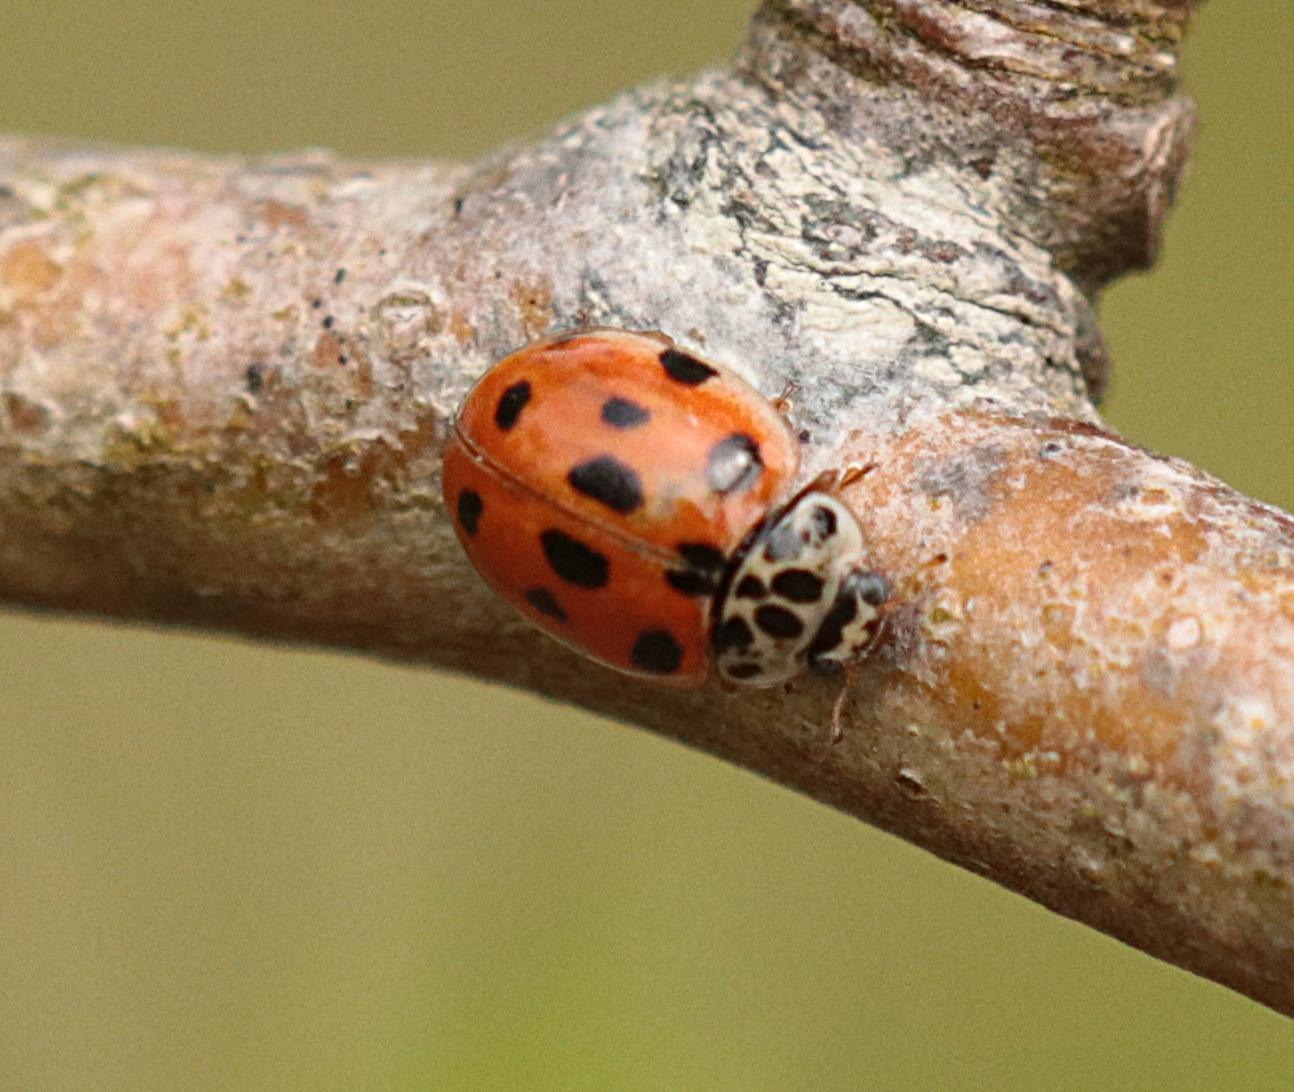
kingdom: Animalia
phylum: Arthropoda
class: Insecta
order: Coleoptera
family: Coccinellidae
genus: Adalia
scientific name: Adalia decempunctata
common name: Tiplettet mariehøne
